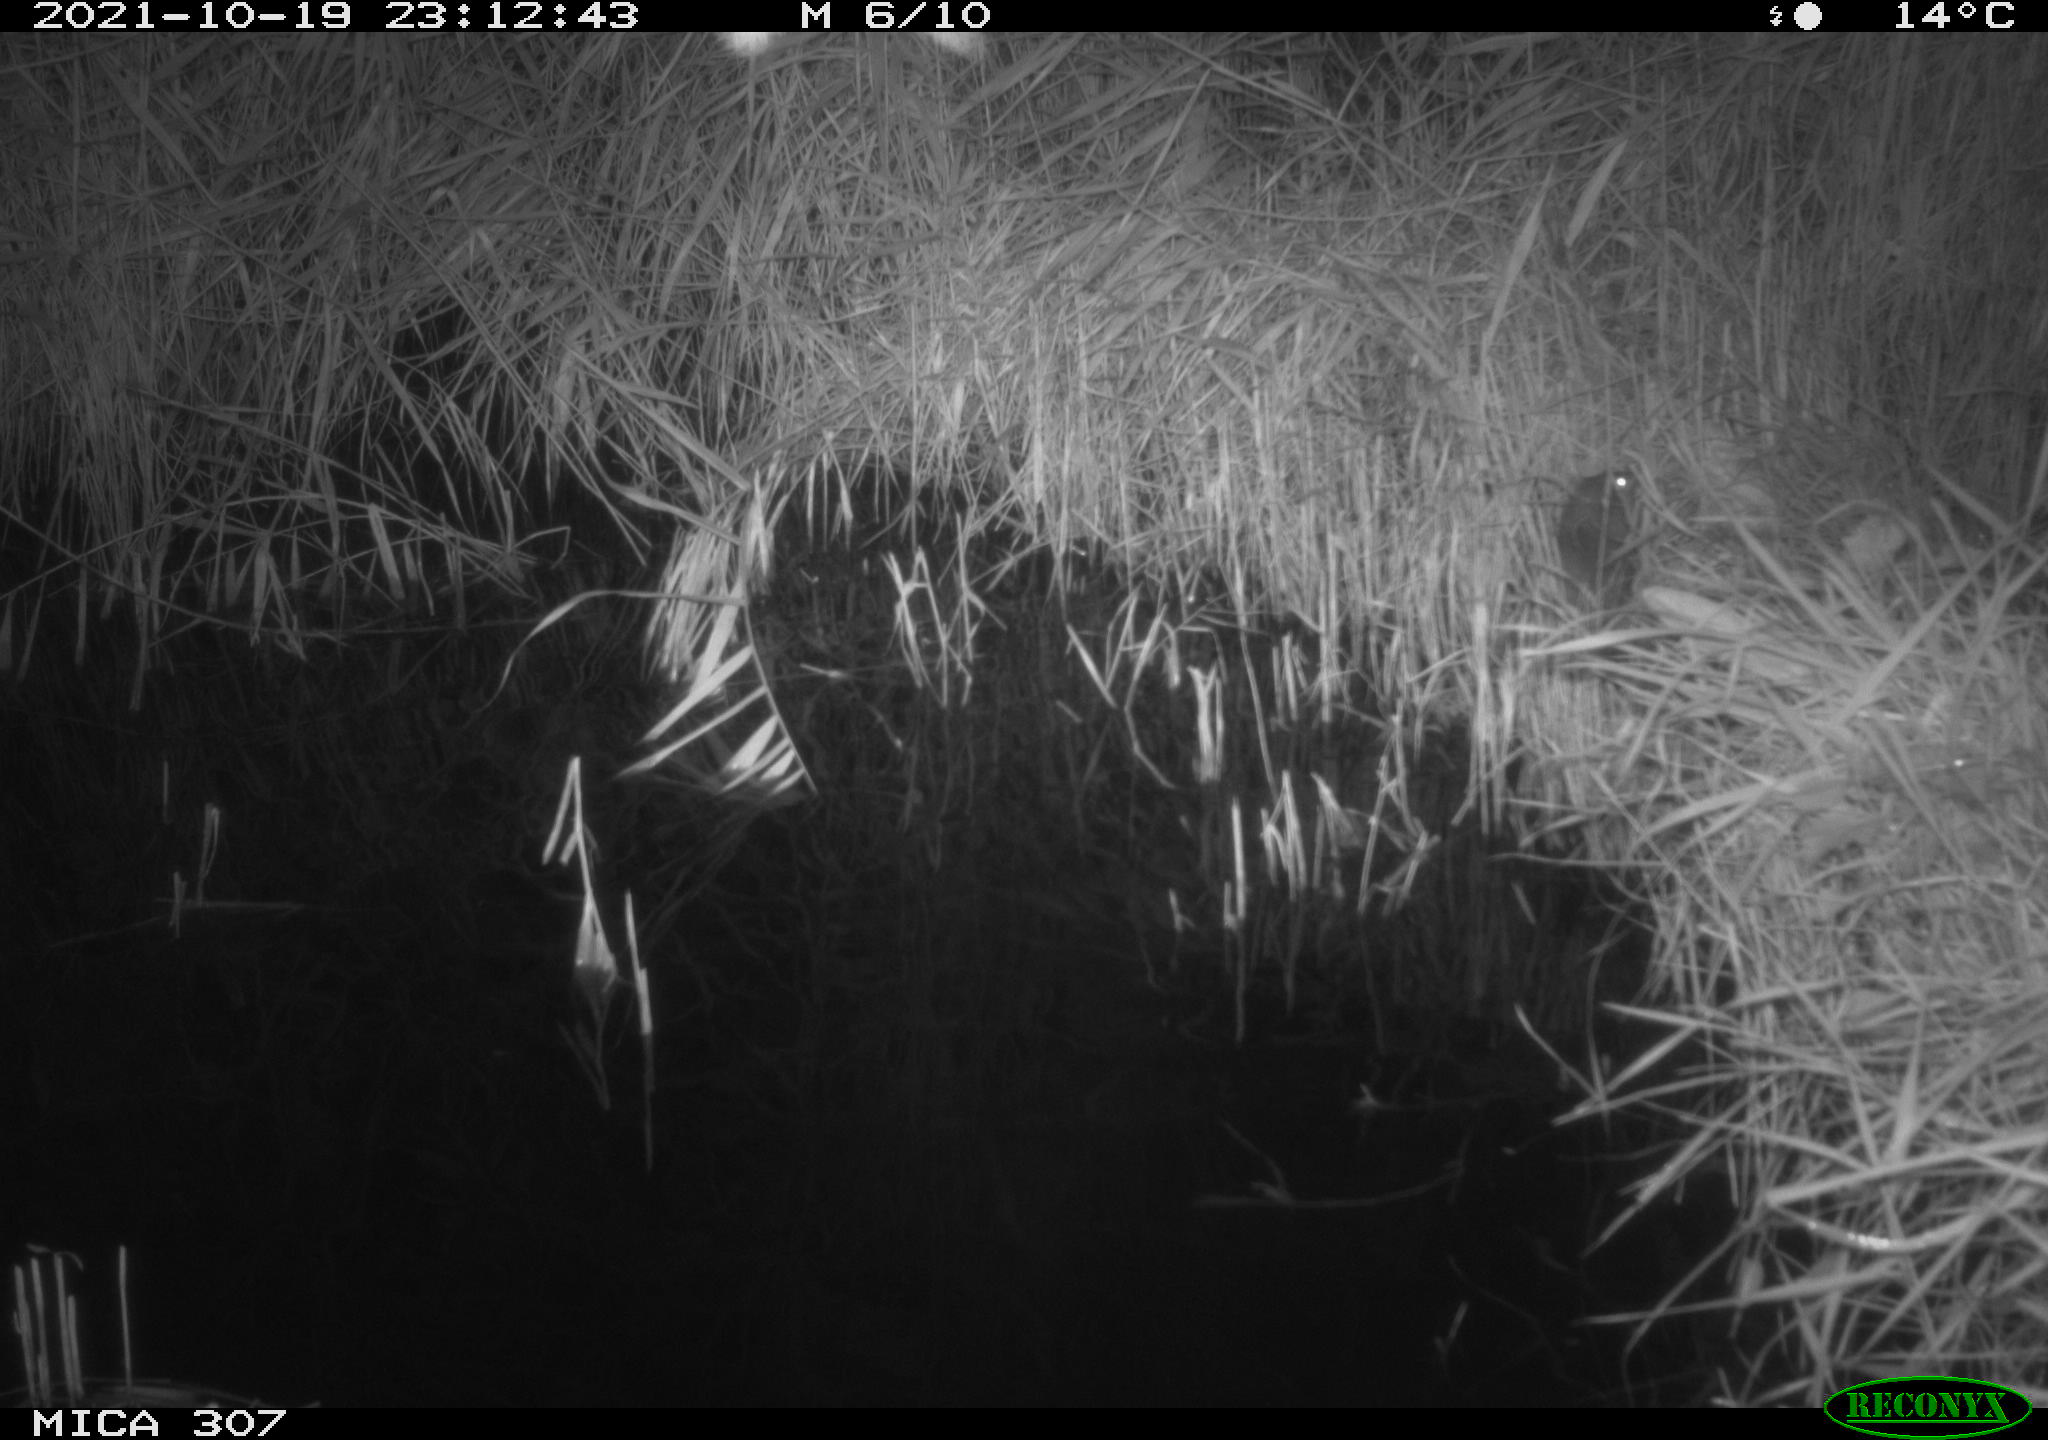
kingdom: Animalia
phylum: Chordata
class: Mammalia
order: Rodentia
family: Muridae
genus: Rattus
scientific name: Rattus norvegicus
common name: Brown rat
